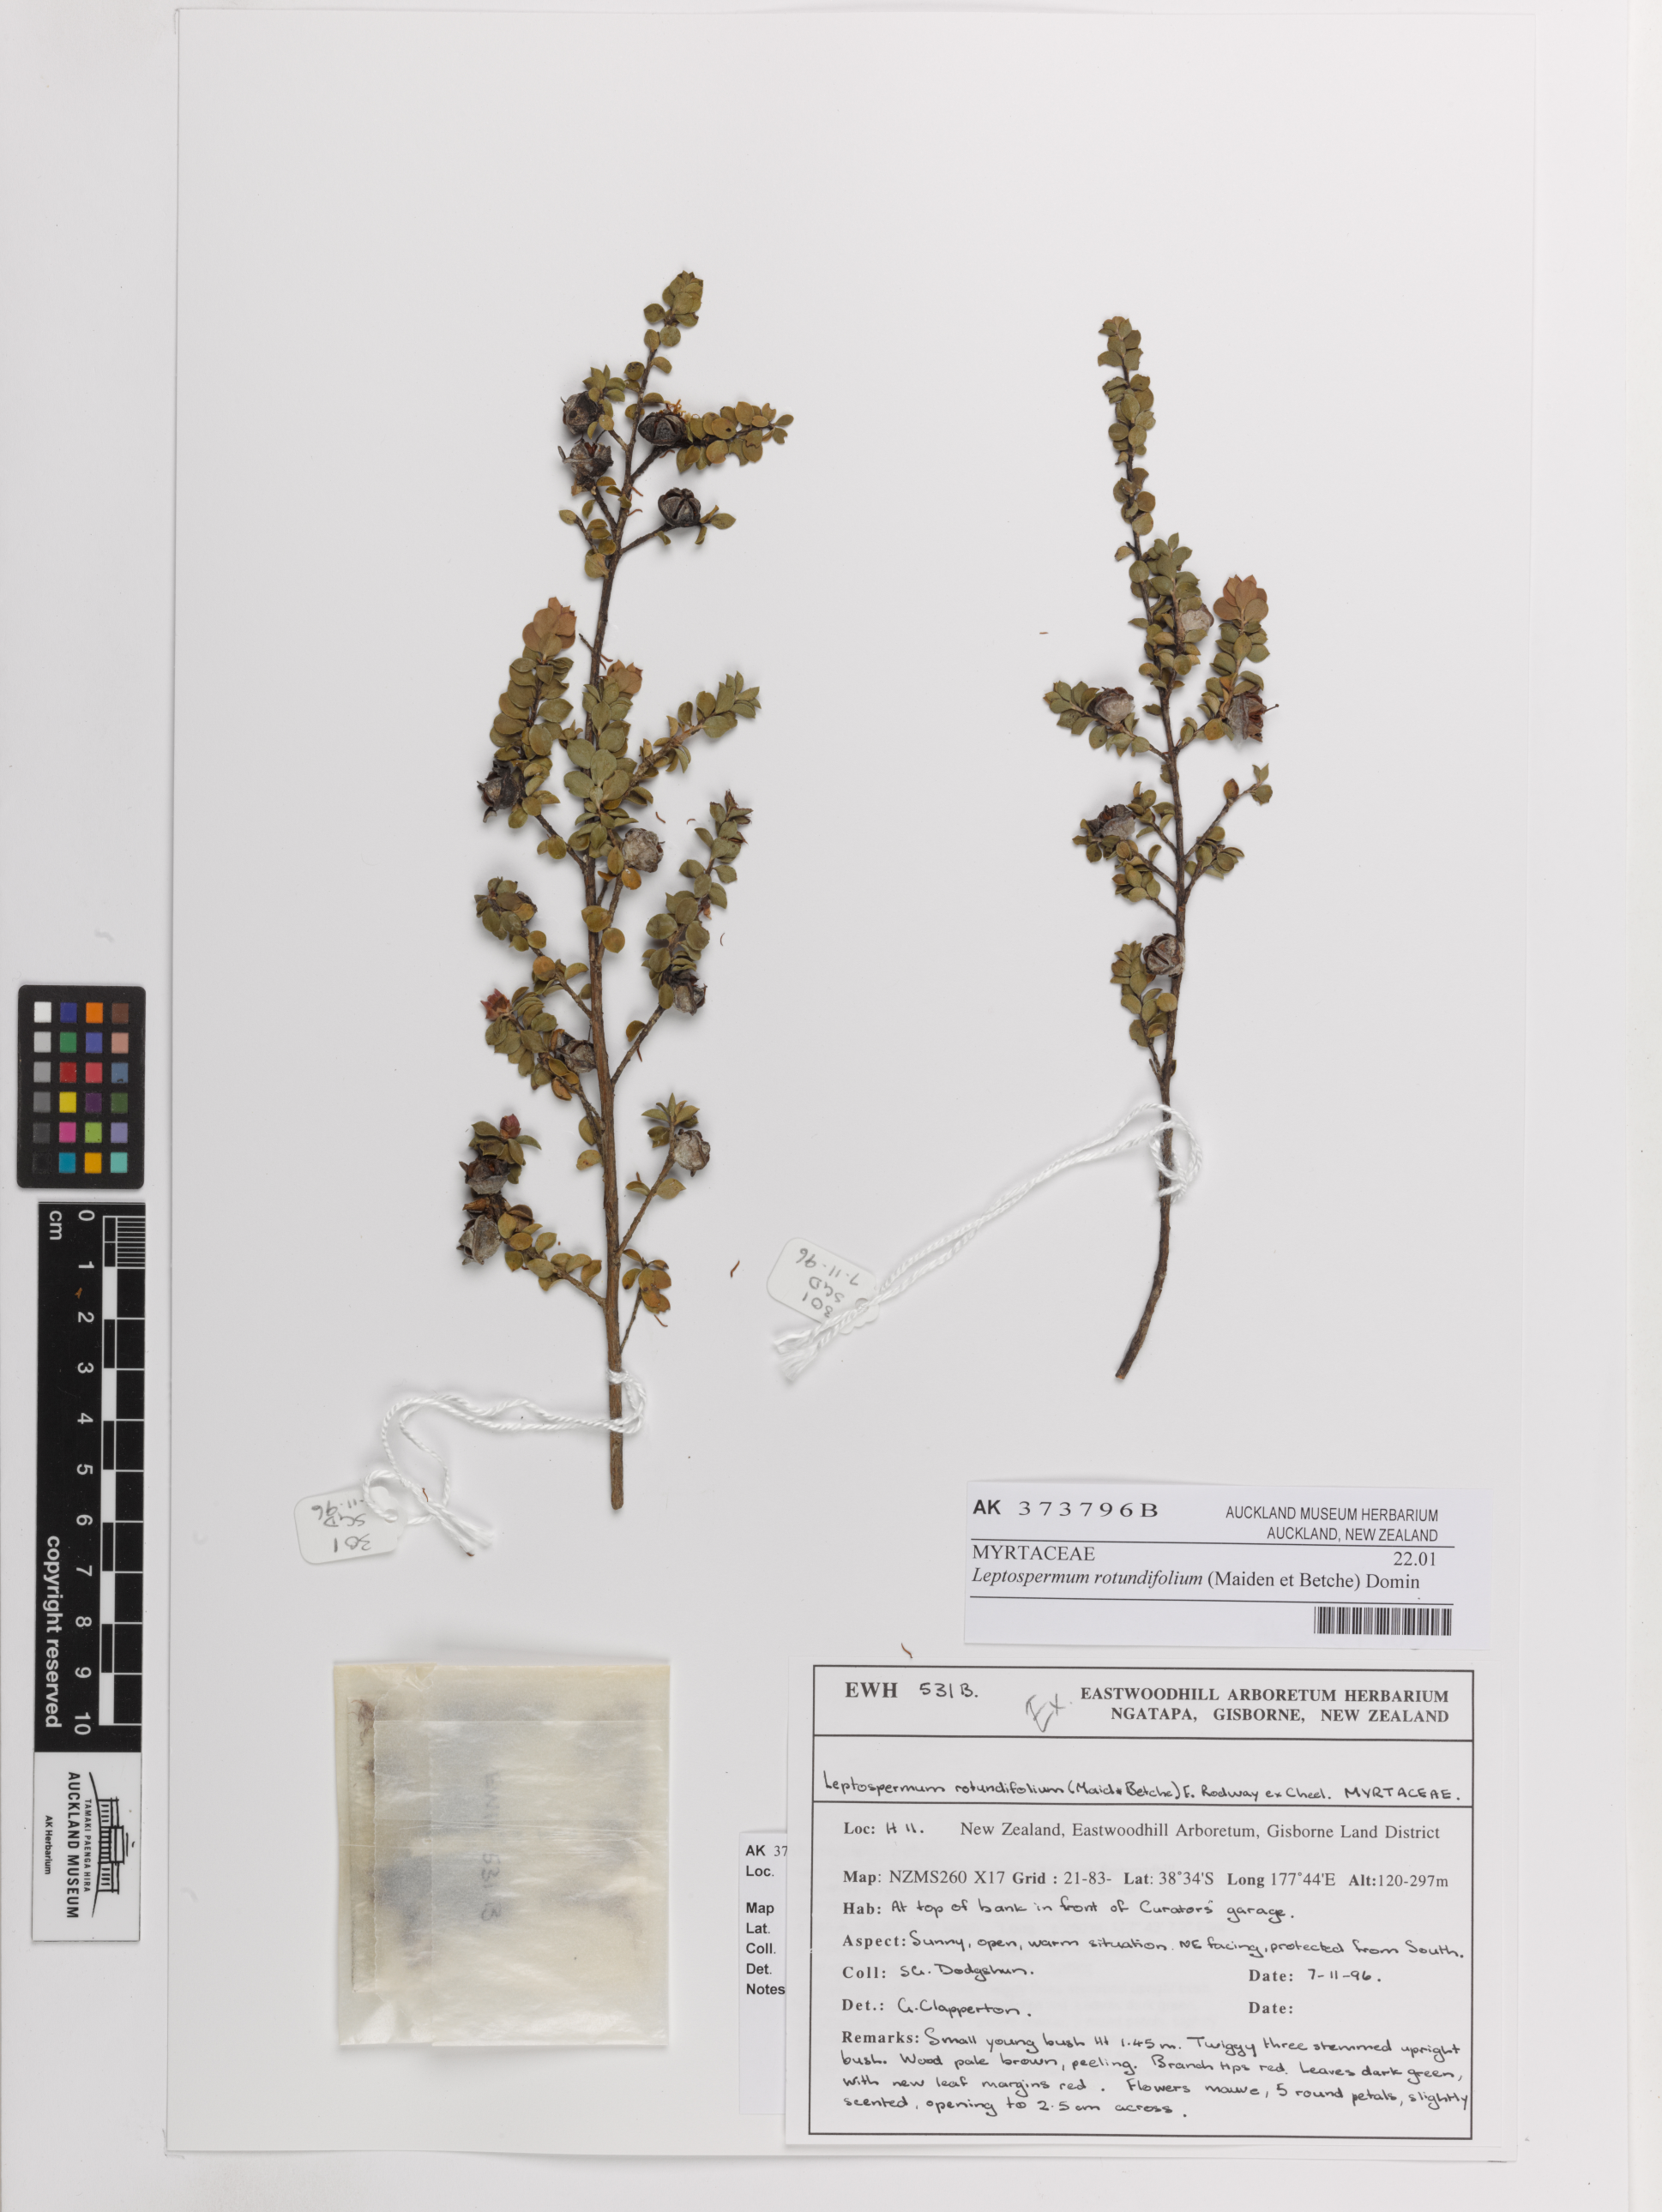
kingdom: Plantae
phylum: Tracheophyta
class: Magnoliopsida
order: Myrtales
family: Myrtaceae
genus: Leptospermum
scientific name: Leptospermum rotundifolium
